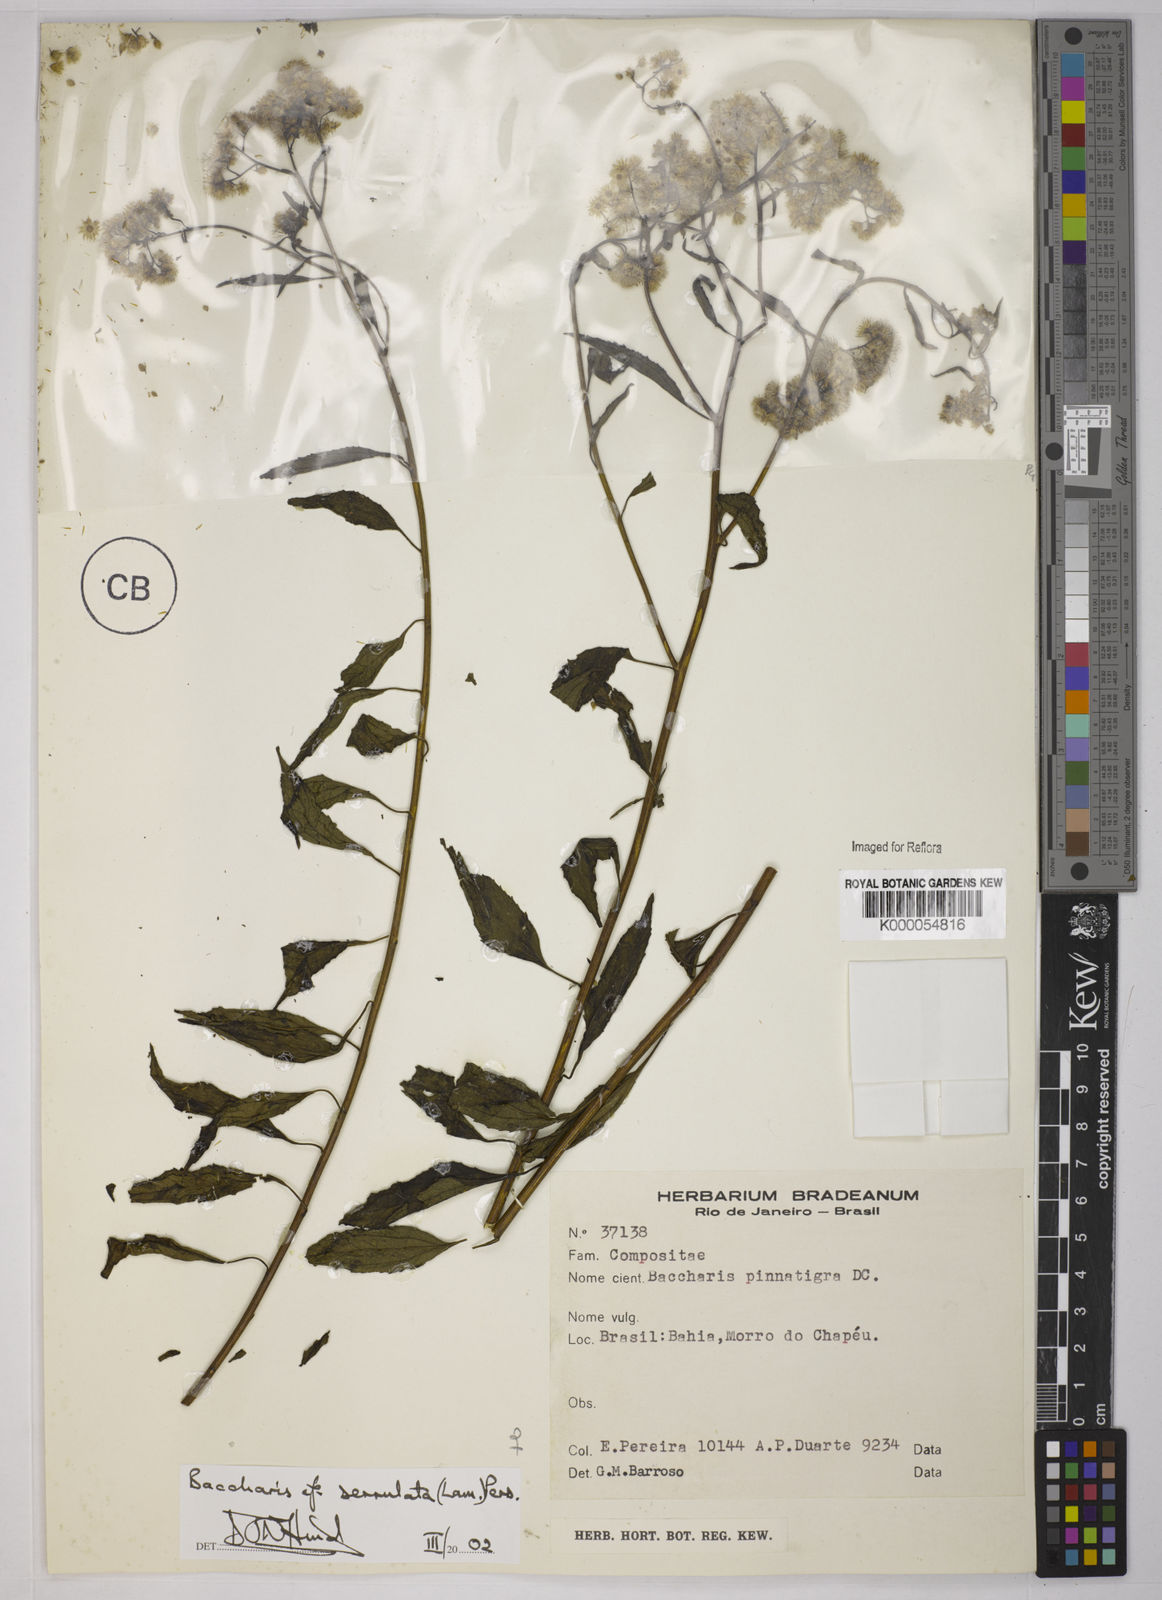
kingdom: Plantae
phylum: Tracheophyta
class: Magnoliopsida
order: Asterales
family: Asteraceae
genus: Baccharis
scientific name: Baccharis serrulata
